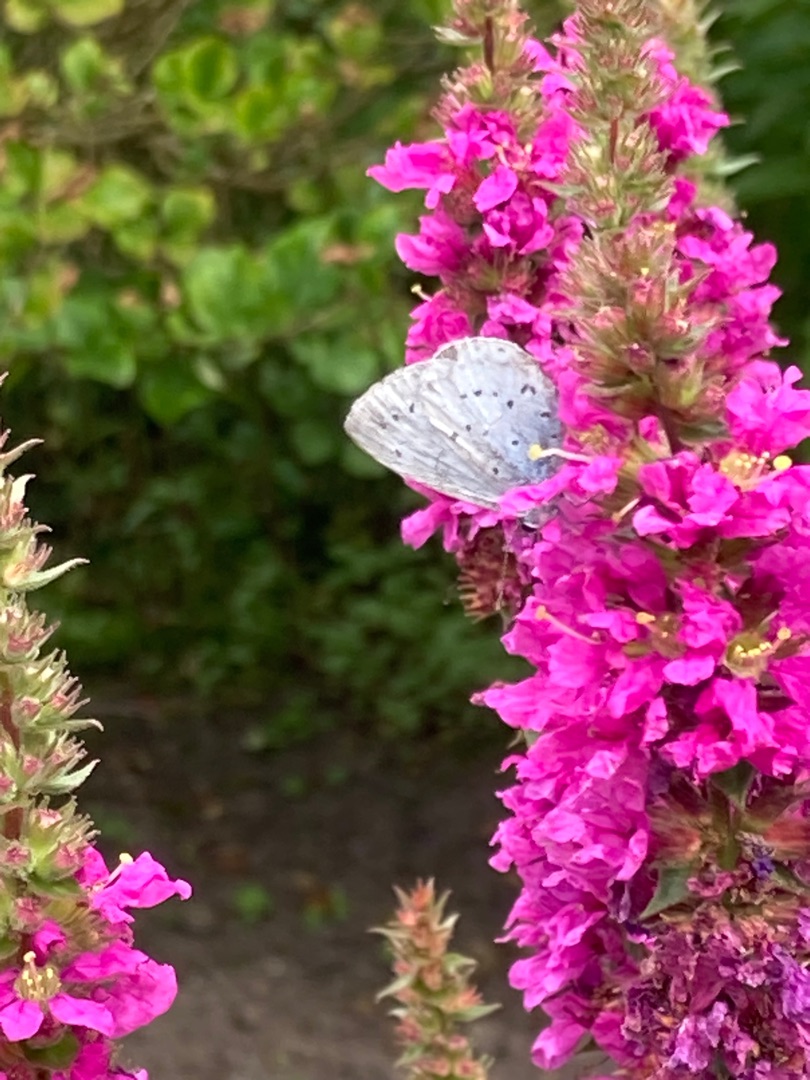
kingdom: Animalia
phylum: Arthropoda
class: Insecta
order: Lepidoptera
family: Lycaenidae
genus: Celastrina
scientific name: Celastrina argiolus
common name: Skovblåfugl
